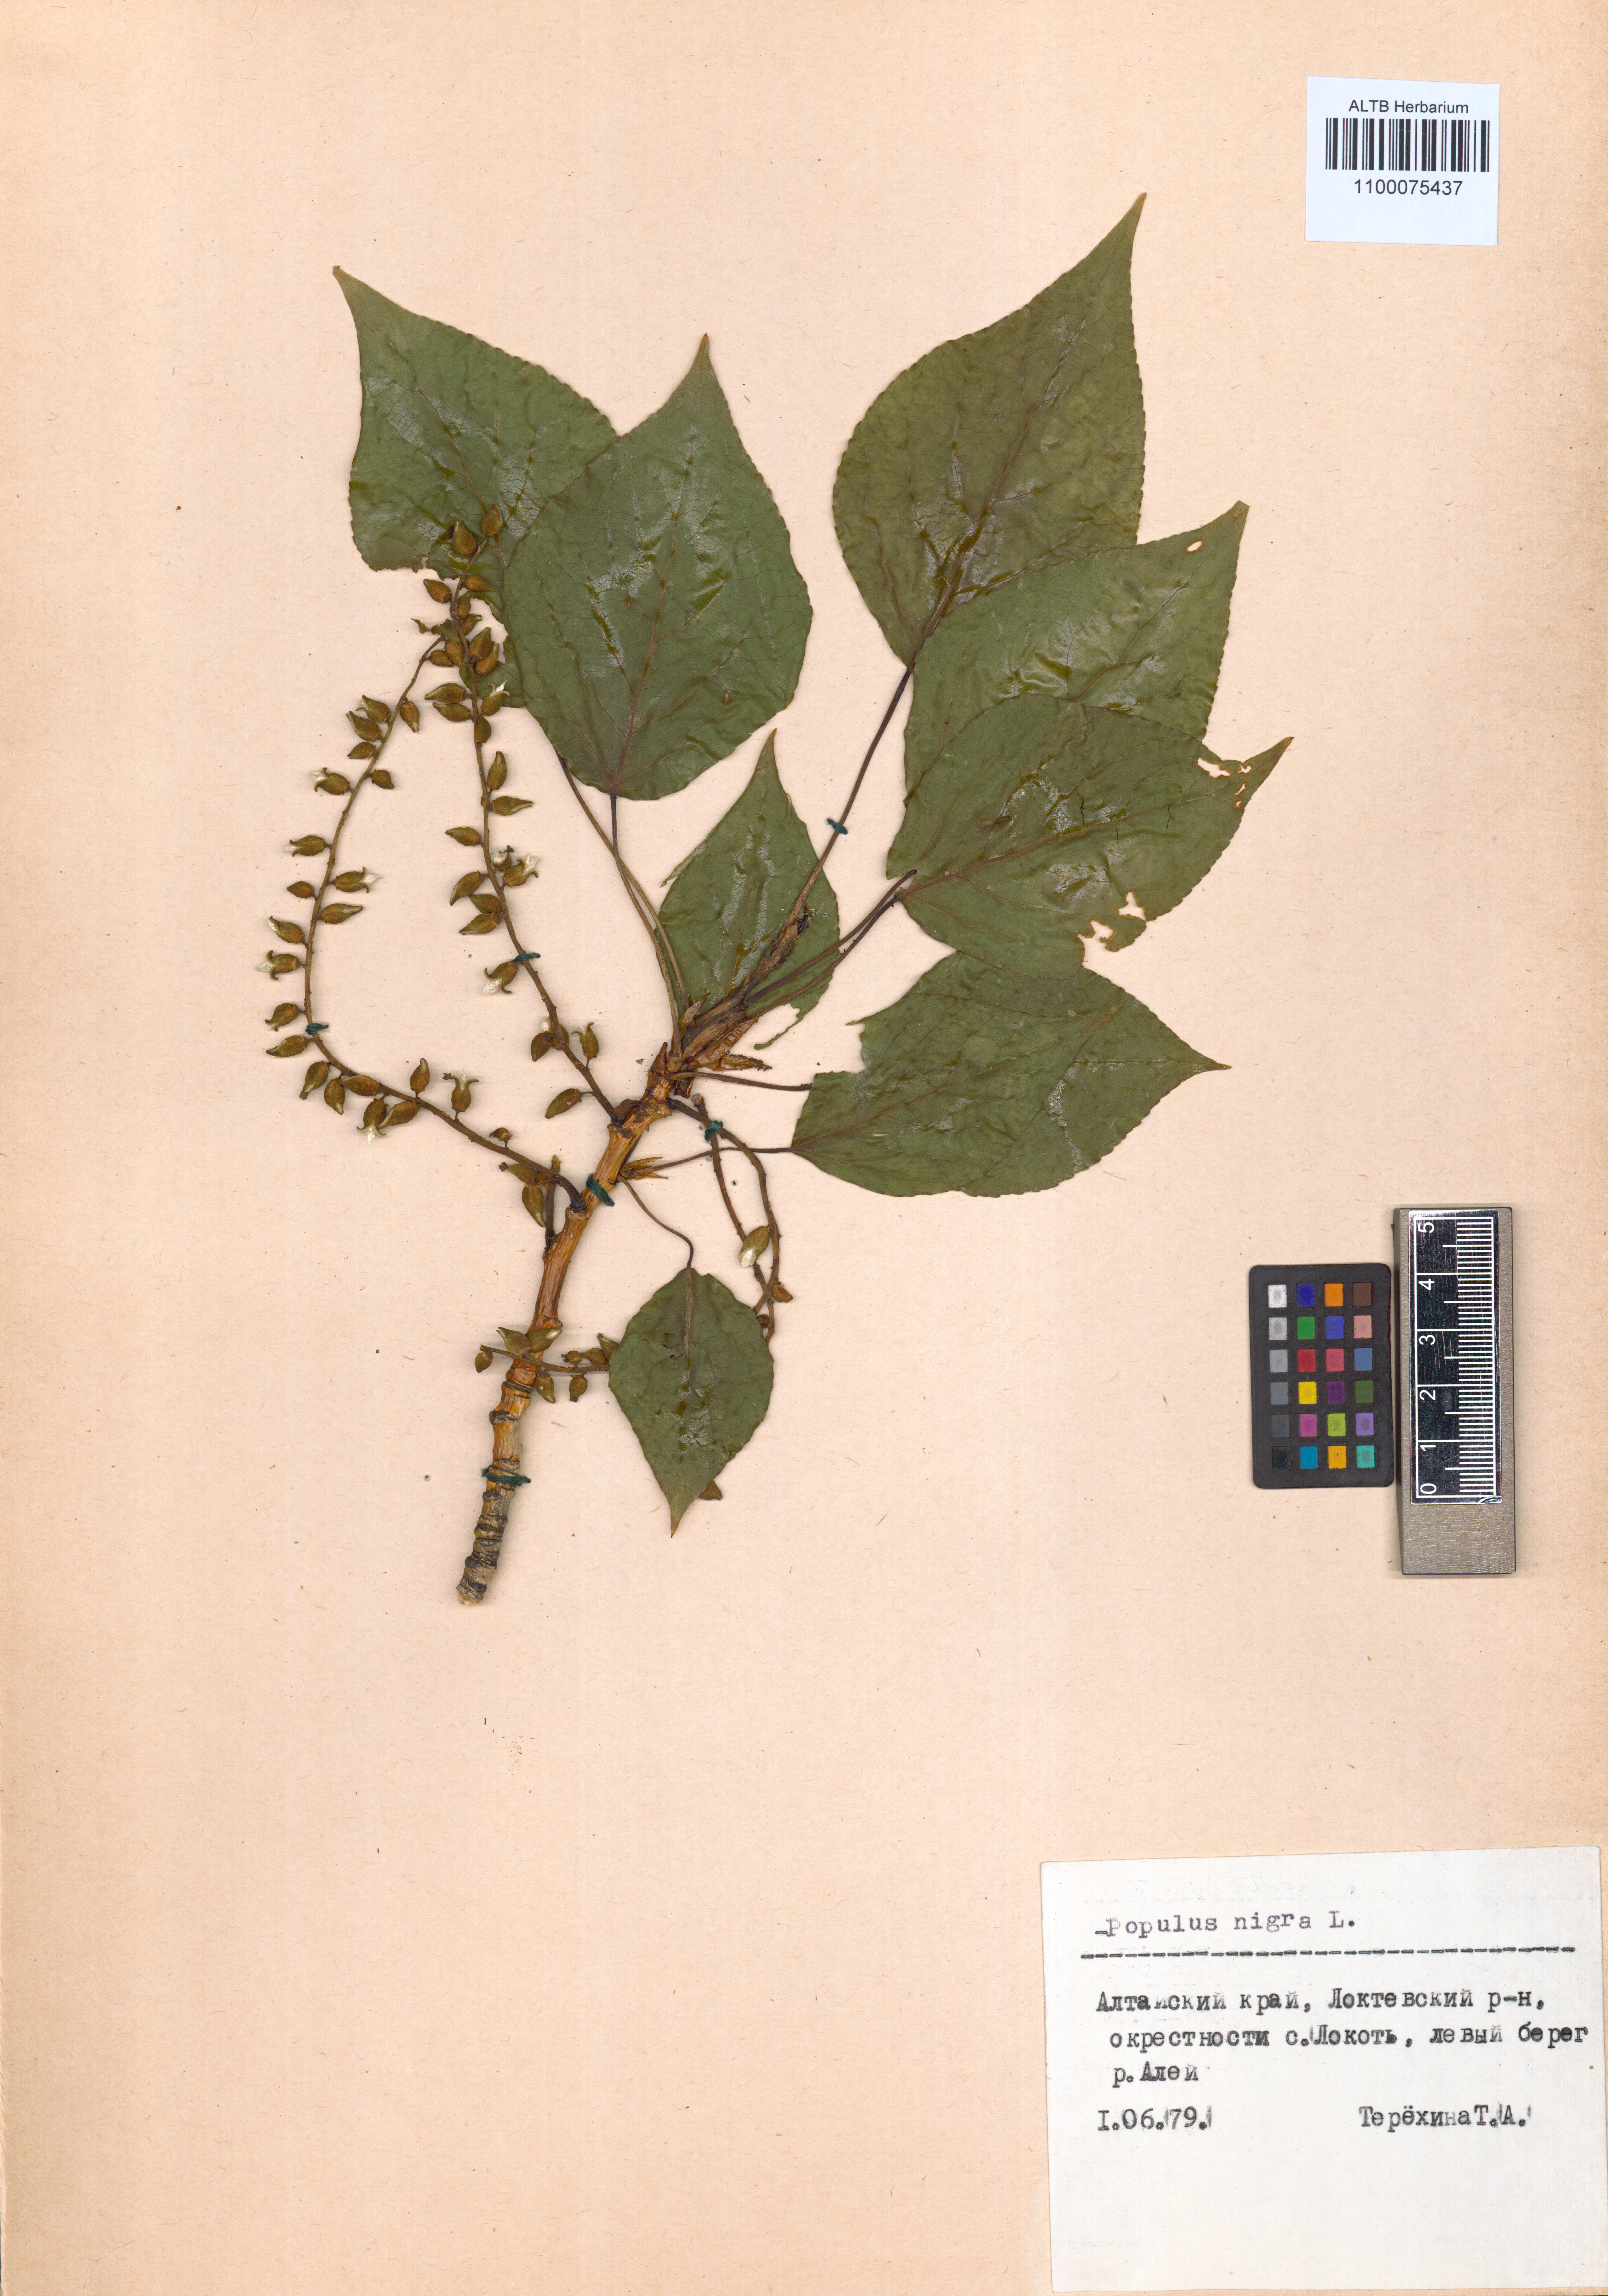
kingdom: Plantae
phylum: Tracheophyta
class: Magnoliopsida
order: Malpighiales
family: Salicaceae
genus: Populus
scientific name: Populus nigra
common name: Black poplar
